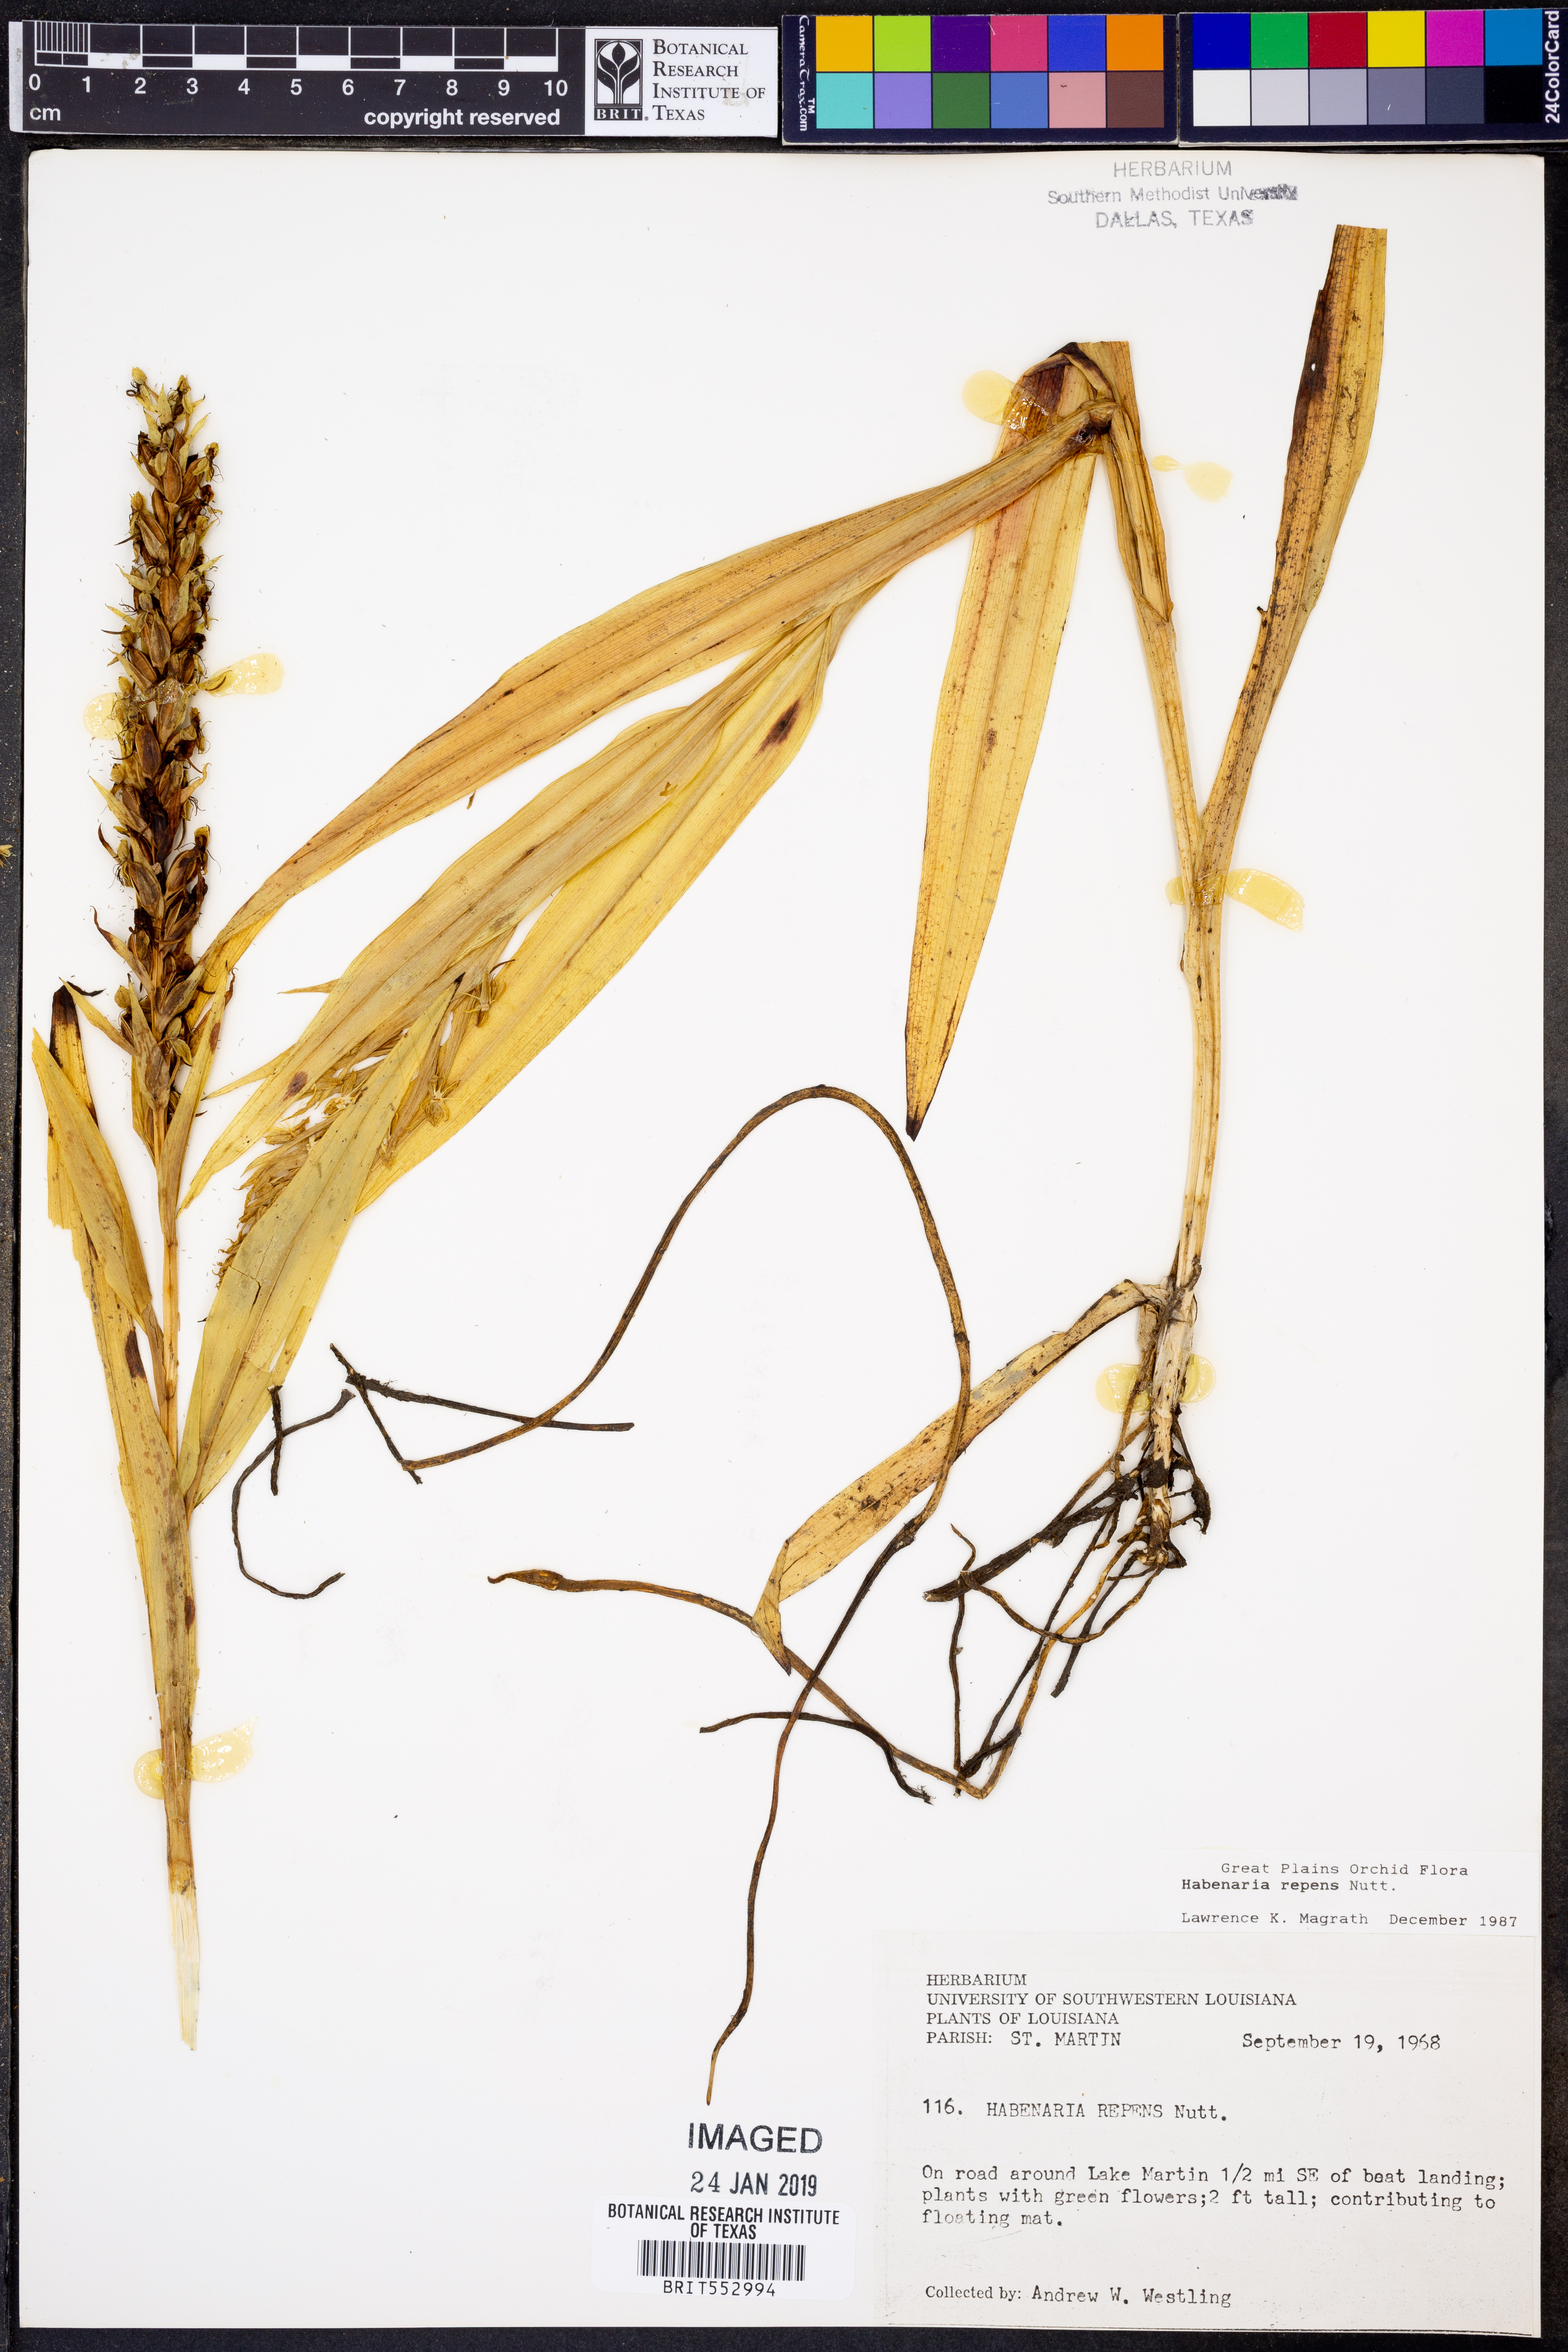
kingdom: Plantae
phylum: Tracheophyta
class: Liliopsida
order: Asparagales
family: Orchidaceae
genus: Habenaria
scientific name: Habenaria repens
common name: Water orchid
